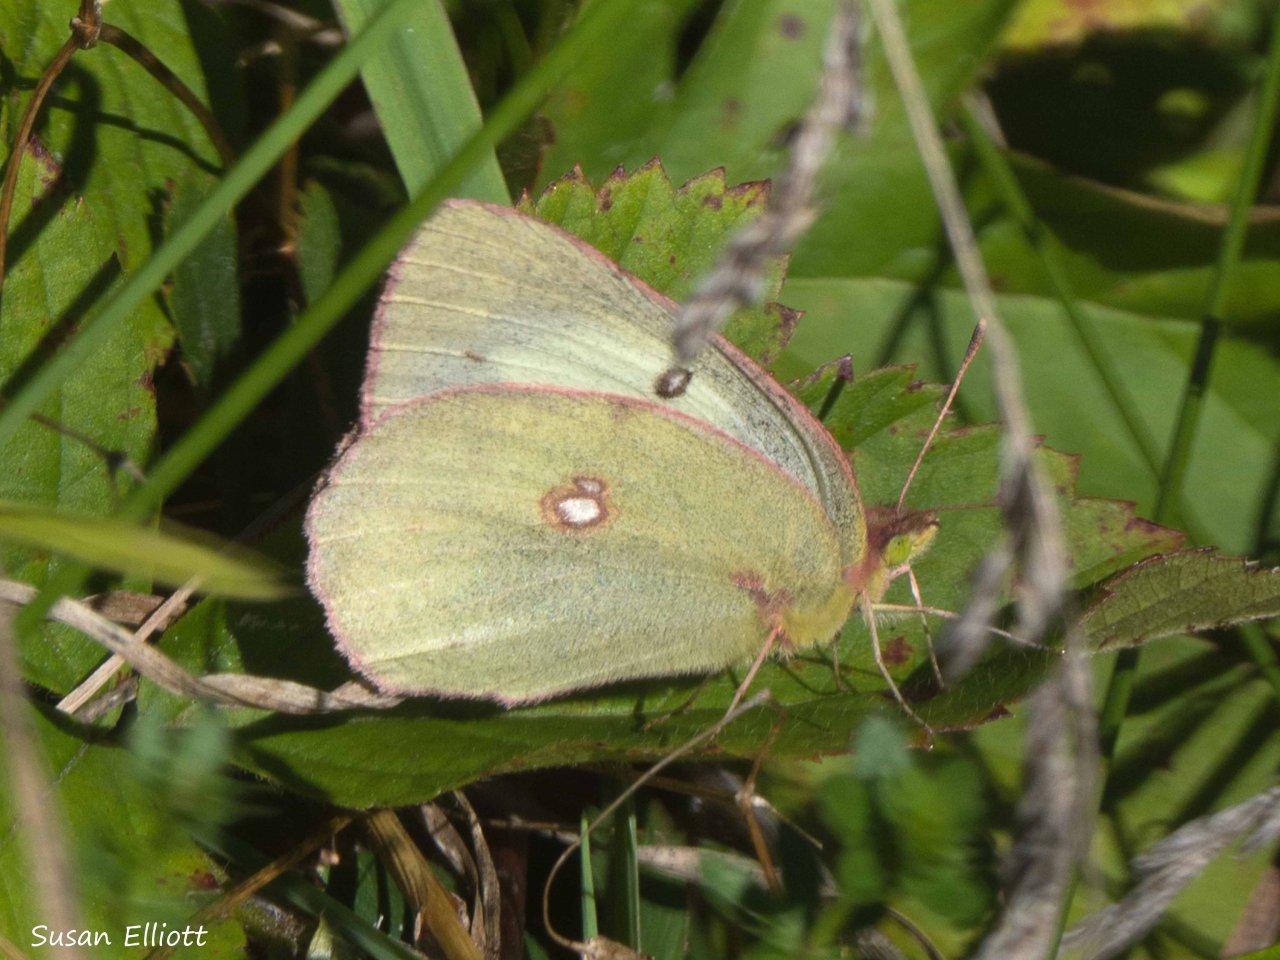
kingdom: Animalia
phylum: Arthropoda
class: Insecta
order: Lepidoptera
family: Pieridae
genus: Colias
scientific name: Colias philodice
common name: Clouded Sulphur
